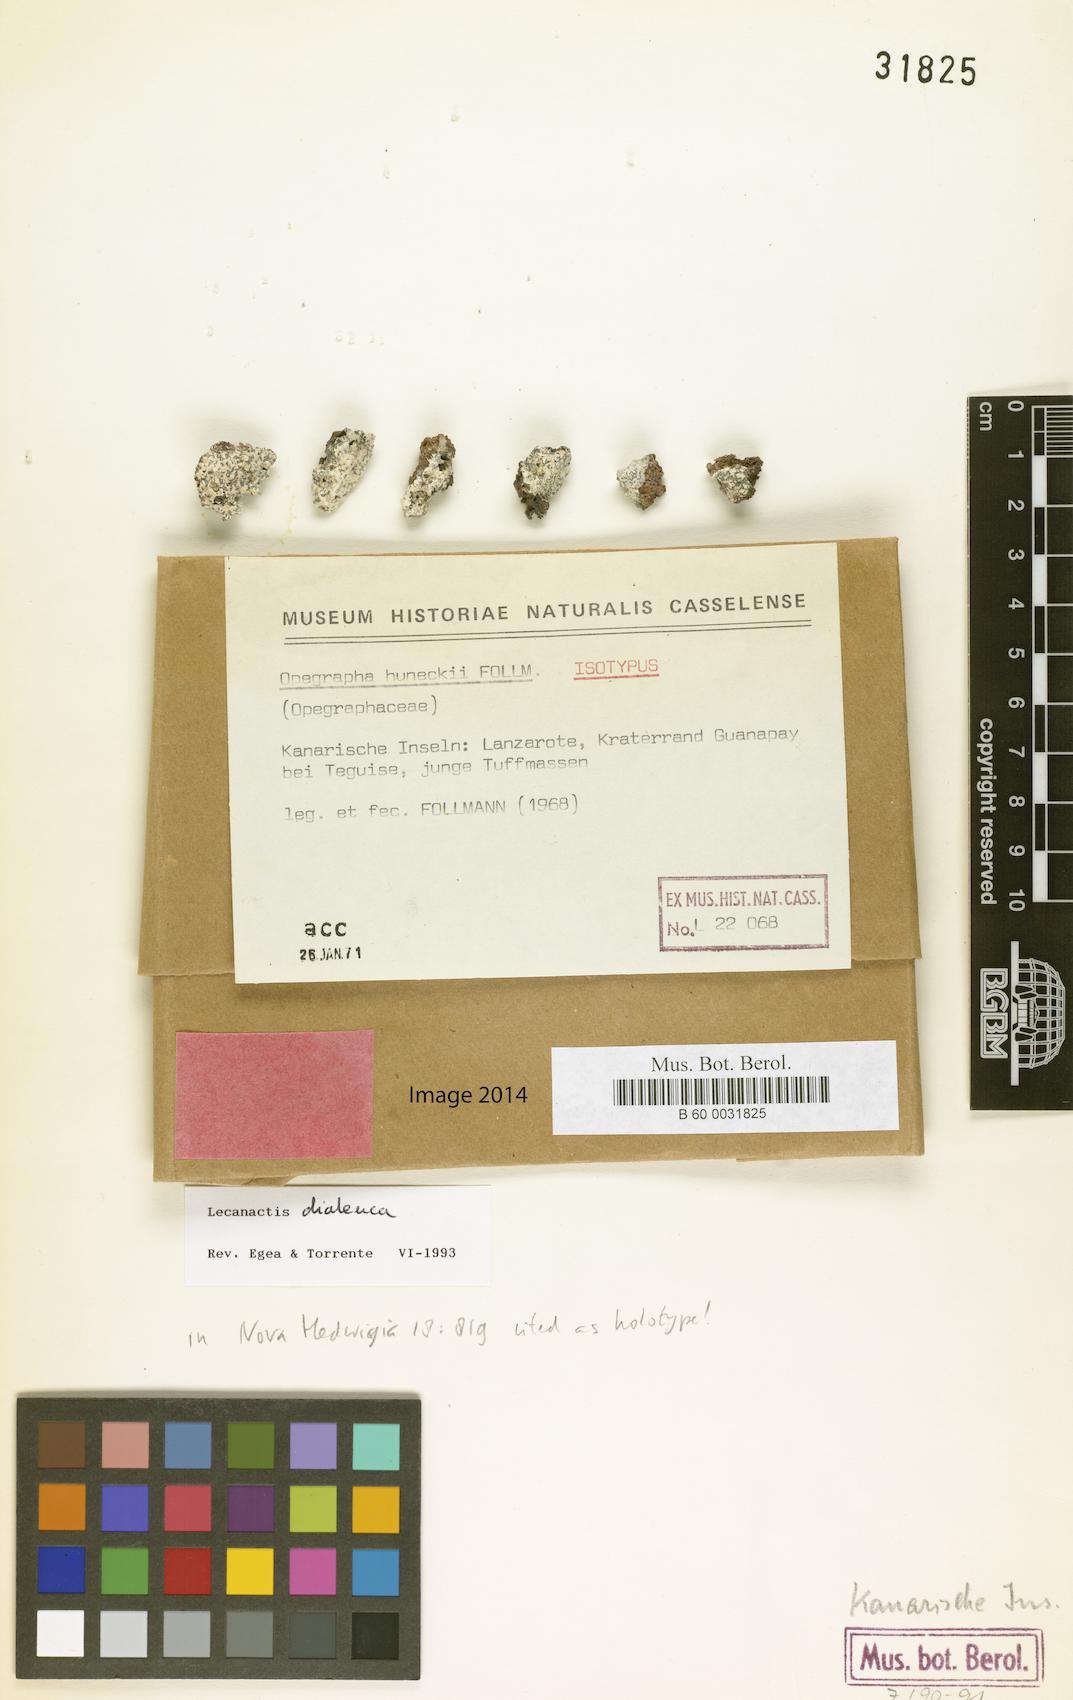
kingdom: Fungi
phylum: Ascomycota
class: Arthoniomycetes
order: Arthoniales
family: Opegraphaceae
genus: Opegrapha
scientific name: Opegrapha
